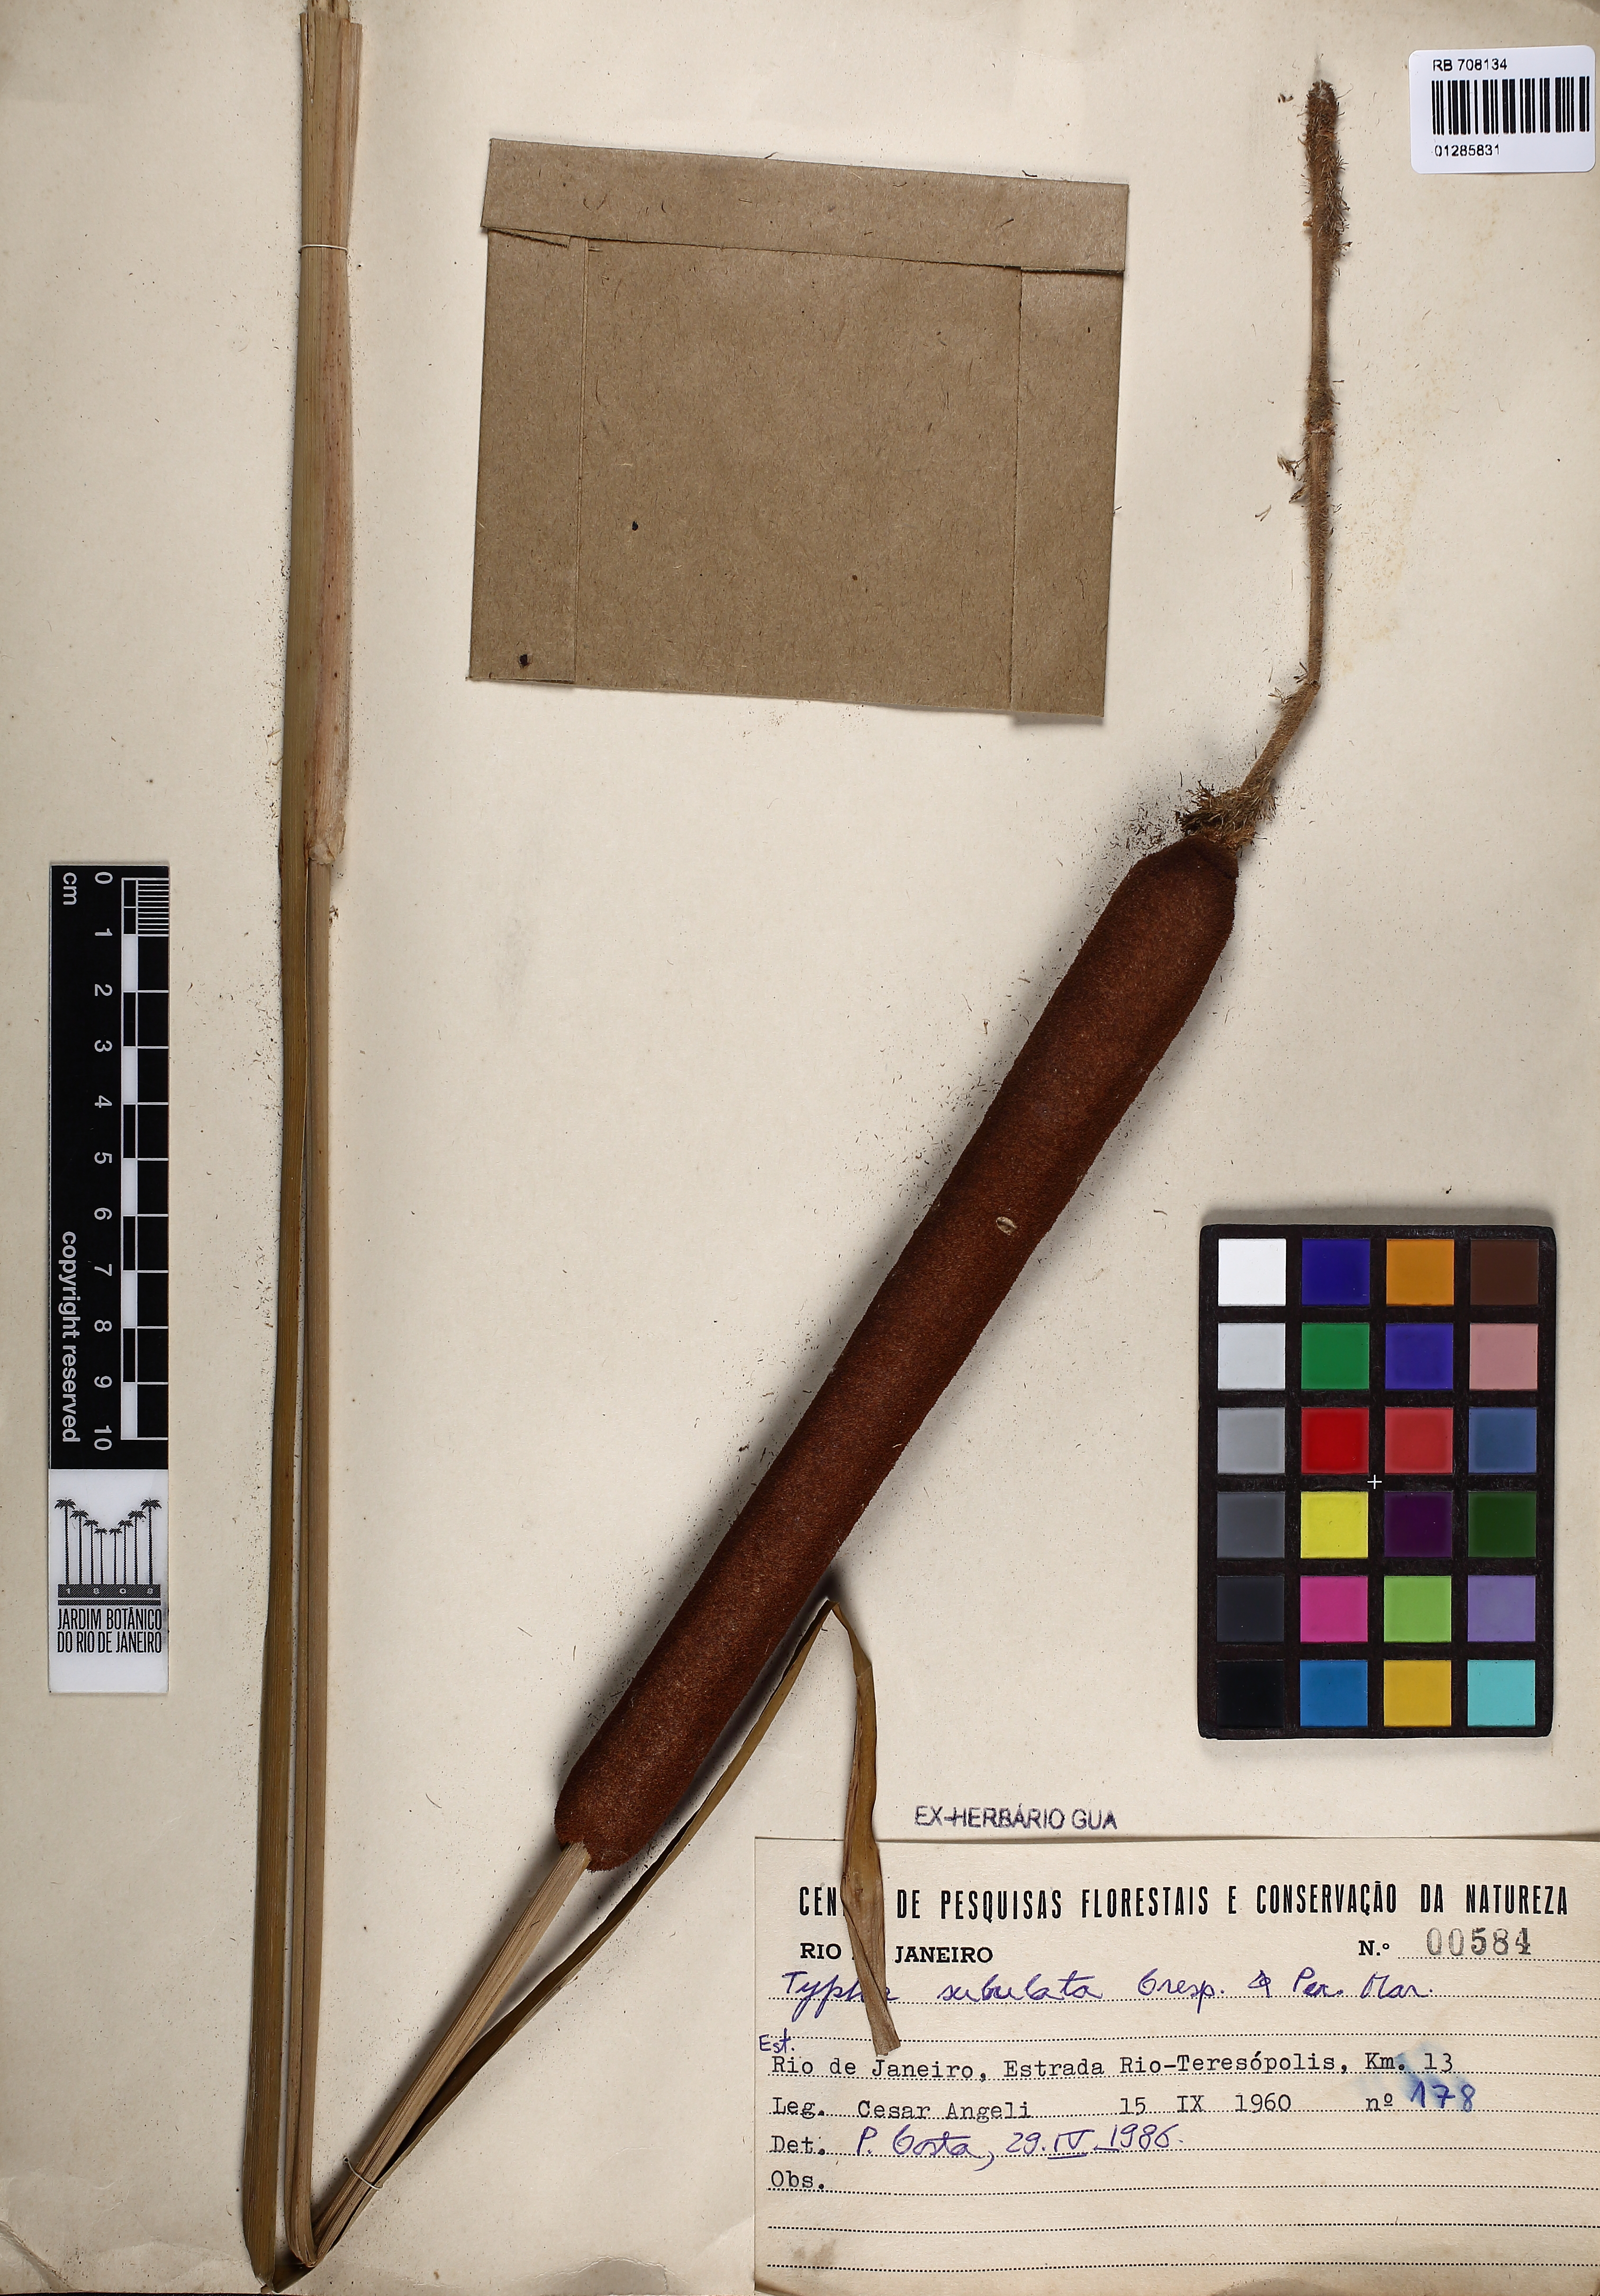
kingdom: Plantae
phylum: Tracheophyta
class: Liliopsida
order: Poales
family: Typhaceae
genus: Typha
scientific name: Typha subulata
